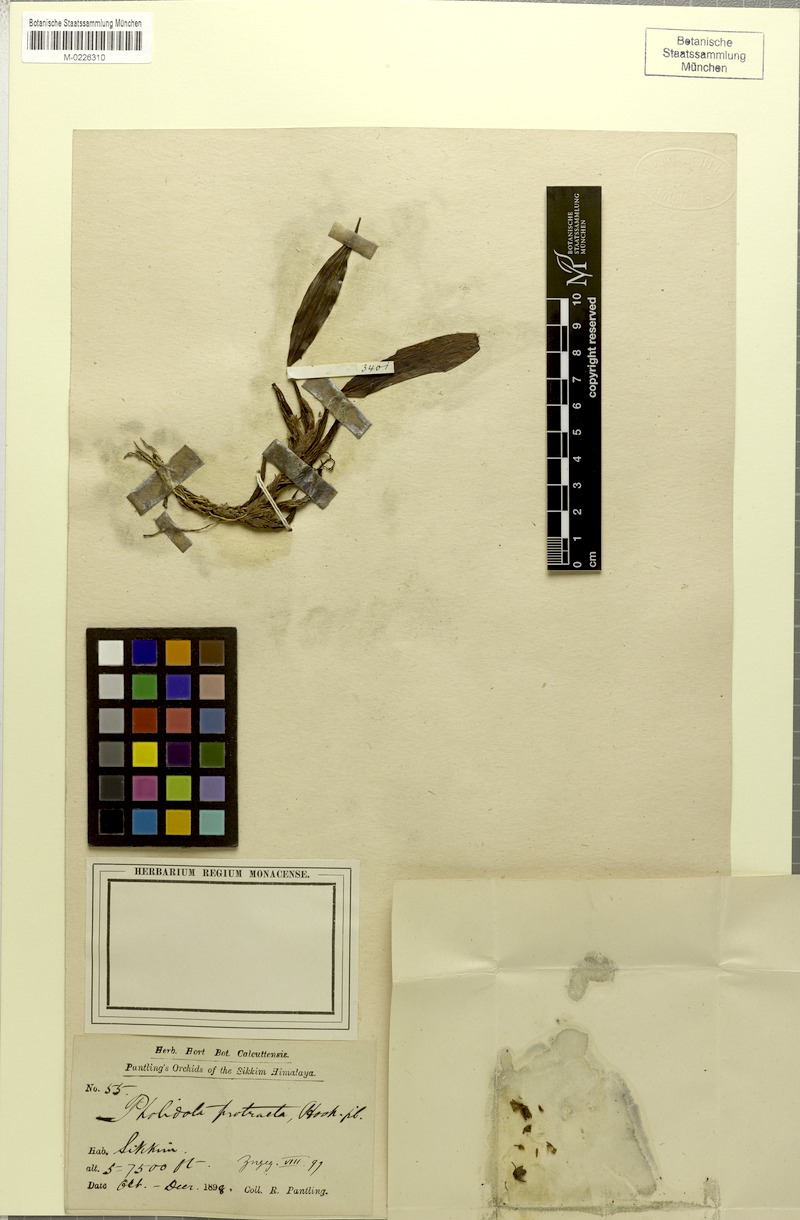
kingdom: Plantae
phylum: Tracheophyta
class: Liliopsida
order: Asparagales
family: Orchidaceae
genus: Coelogyne
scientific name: Coelogyne protracta
